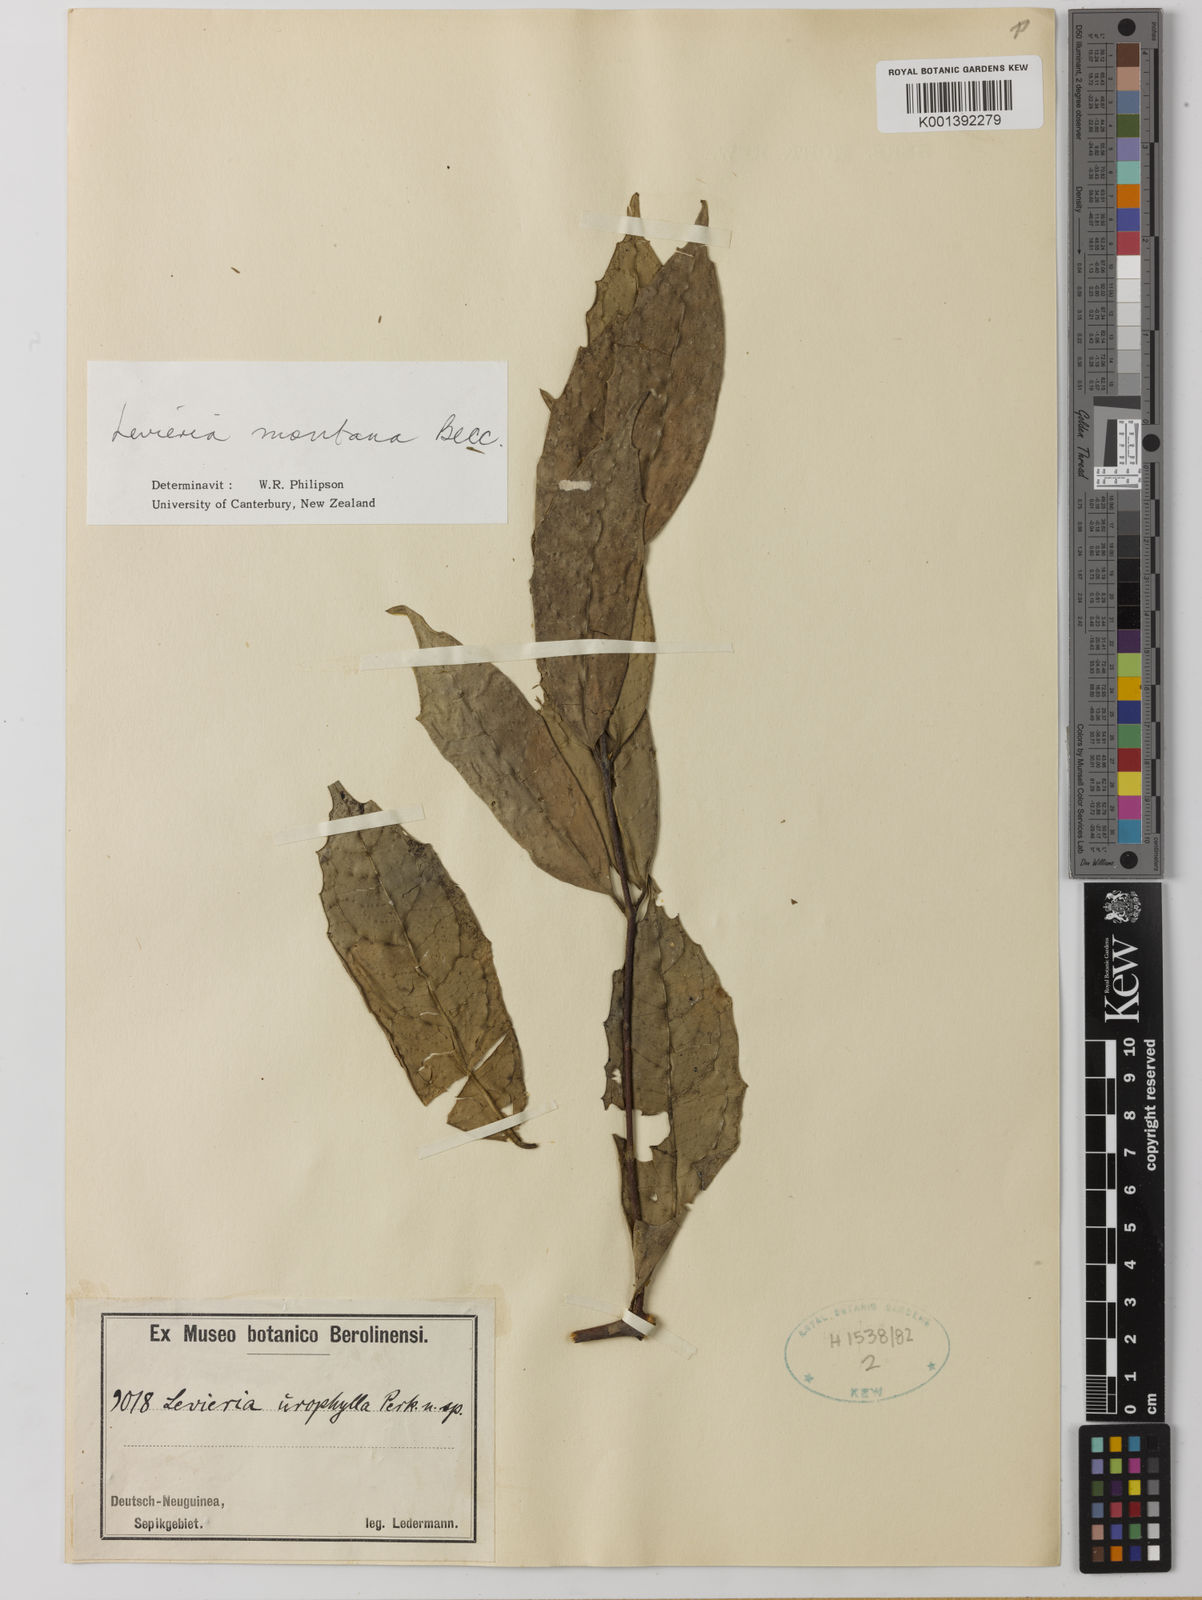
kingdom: Plantae
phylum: Tracheophyta
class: Magnoliopsida
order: Laurales
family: Monimiaceae
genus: Levieria
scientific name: Levieria montana
